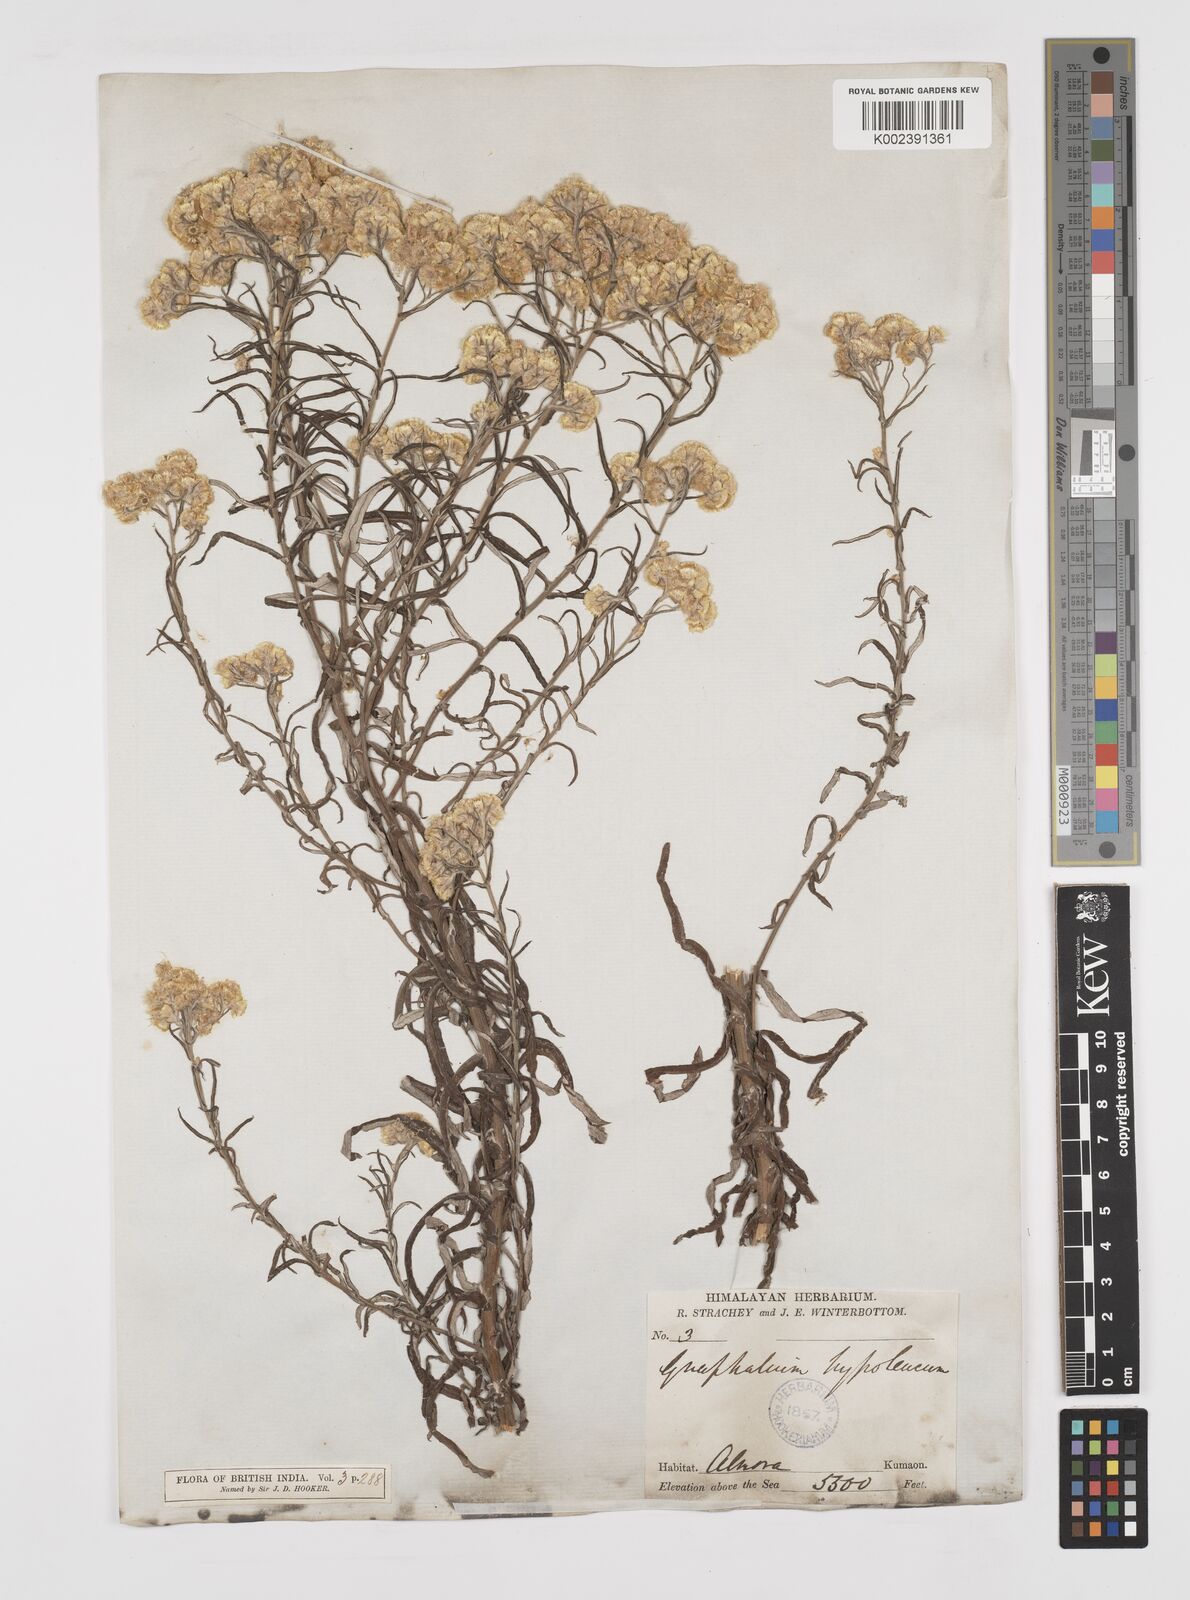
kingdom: Plantae
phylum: Tracheophyta
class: Magnoliopsida
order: Asterales
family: Asteraceae
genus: Pseudognaphalium
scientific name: Pseudognaphalium hypoleucum
